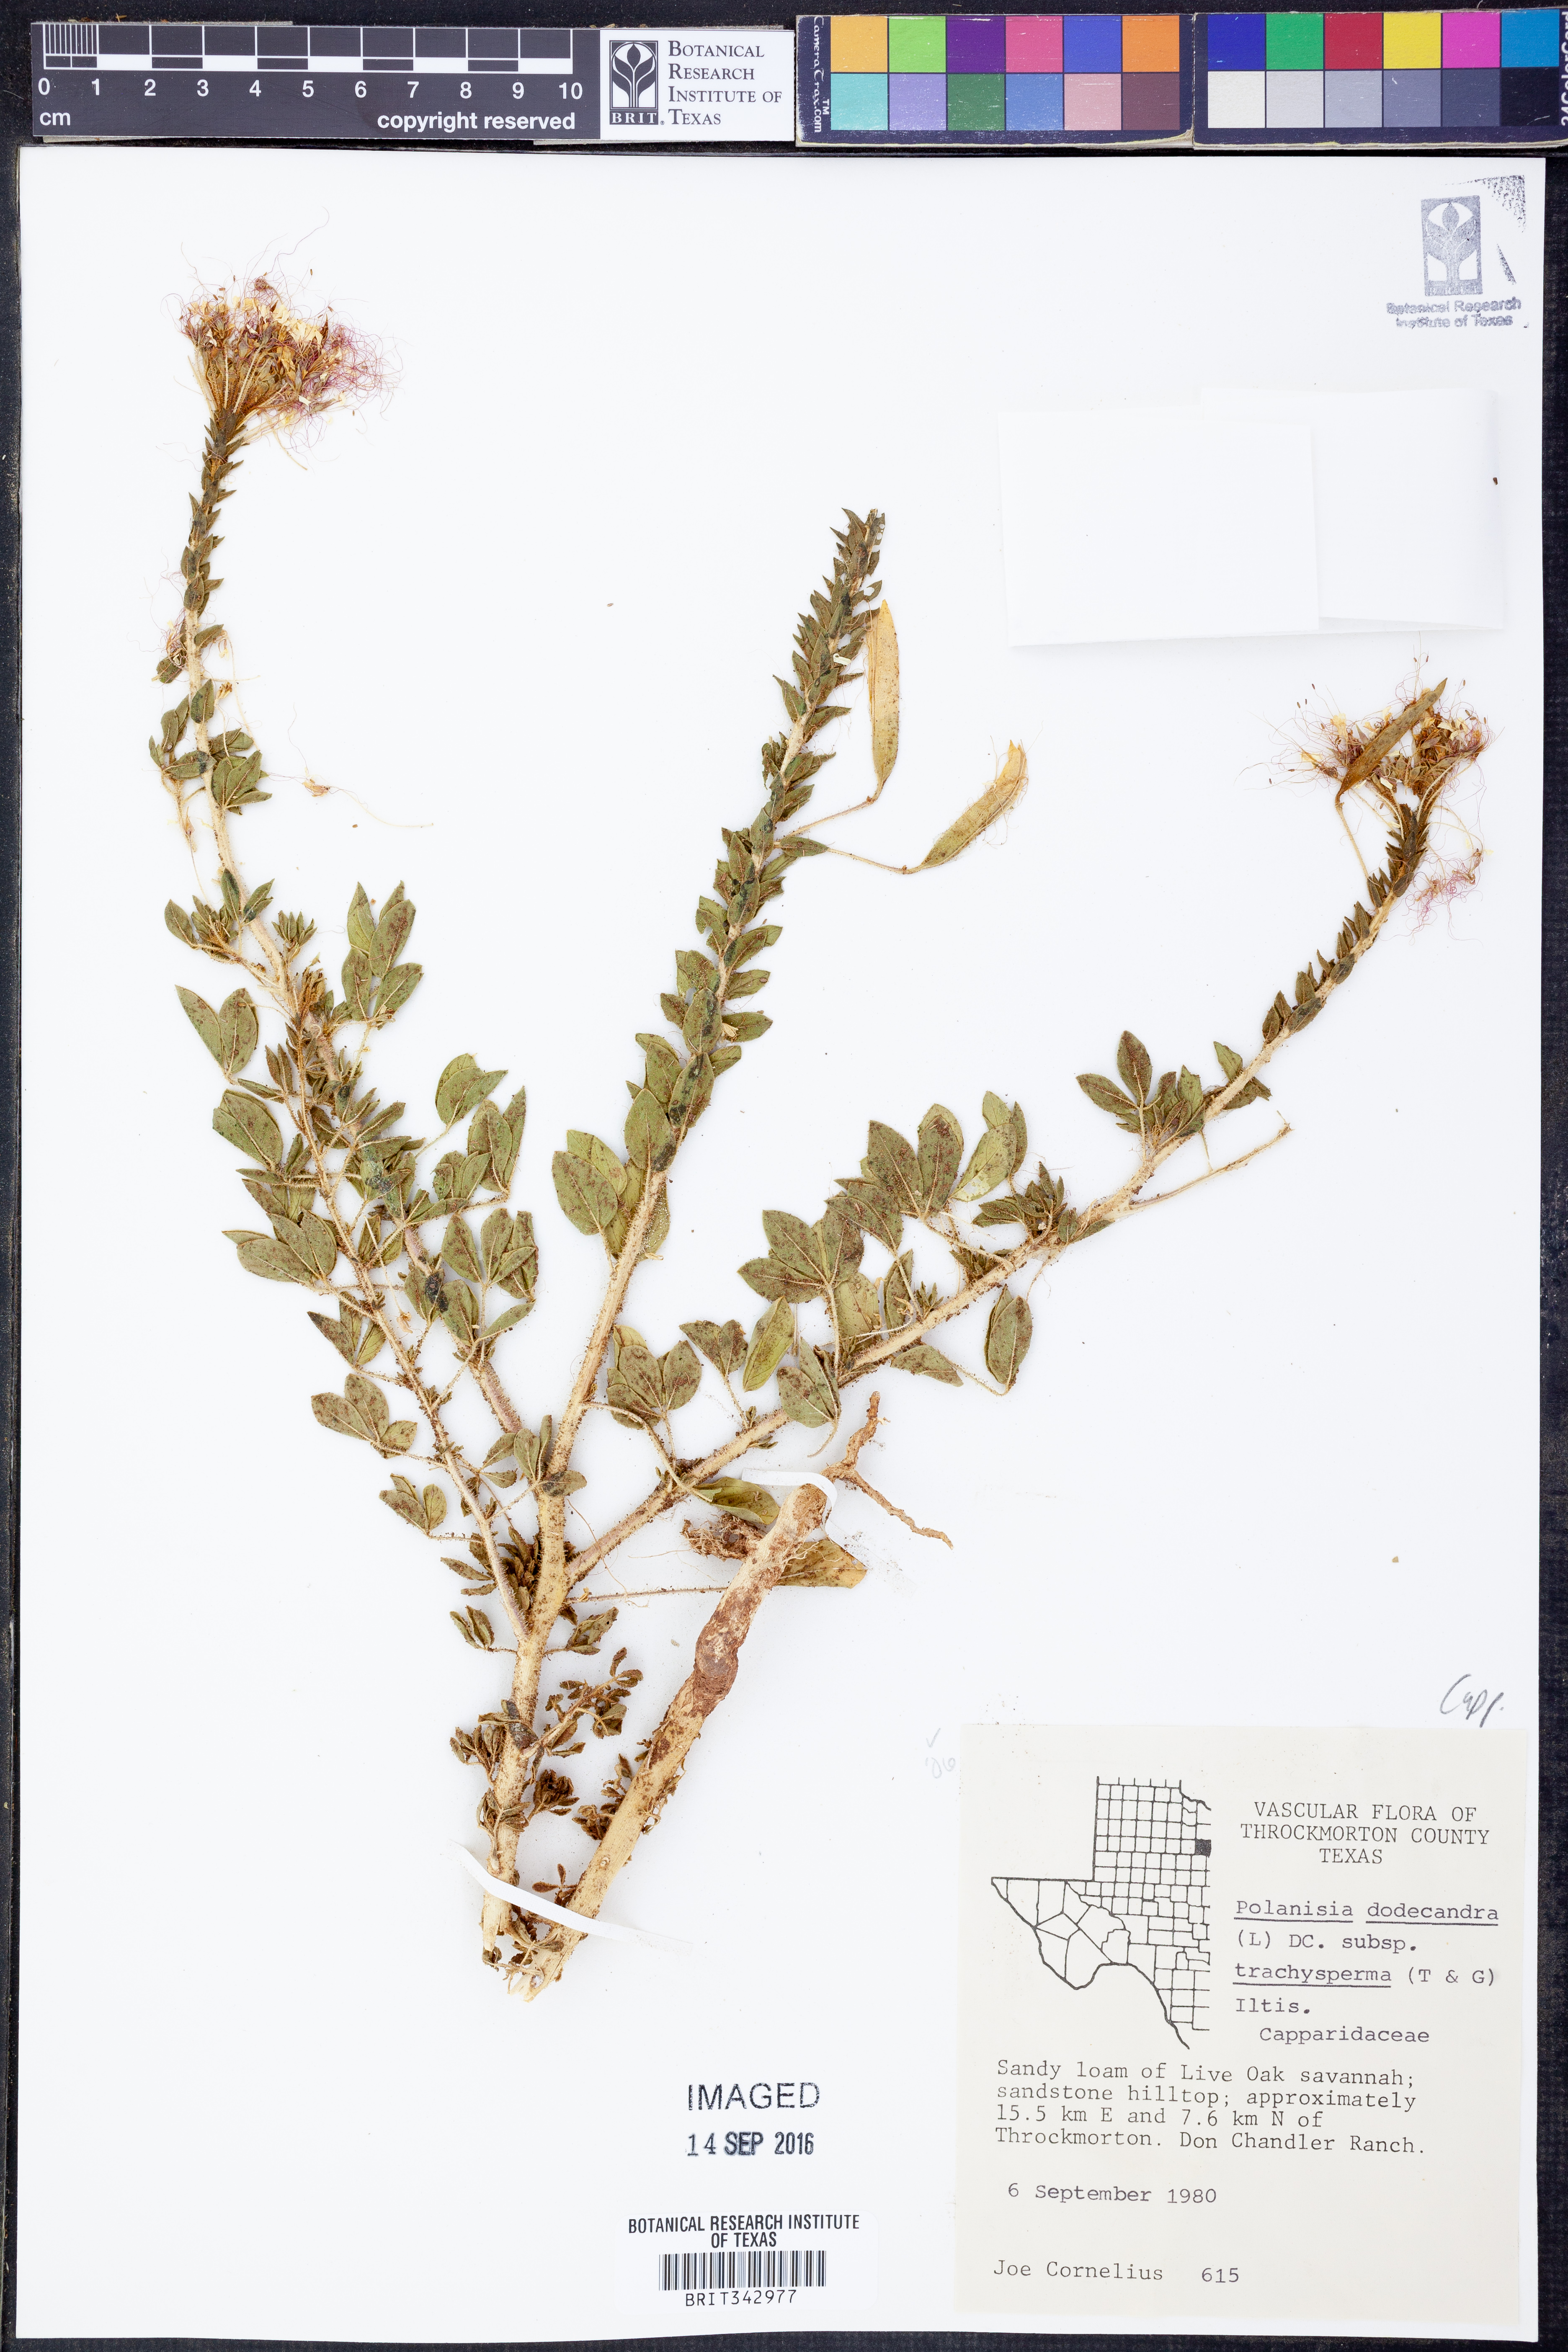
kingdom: Plantae
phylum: Tracheophyta
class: Magnoliopsida
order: Brassicales
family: Cleomaceae
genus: Polanisia
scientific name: Polanisia dodecandra
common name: Clammyweed
